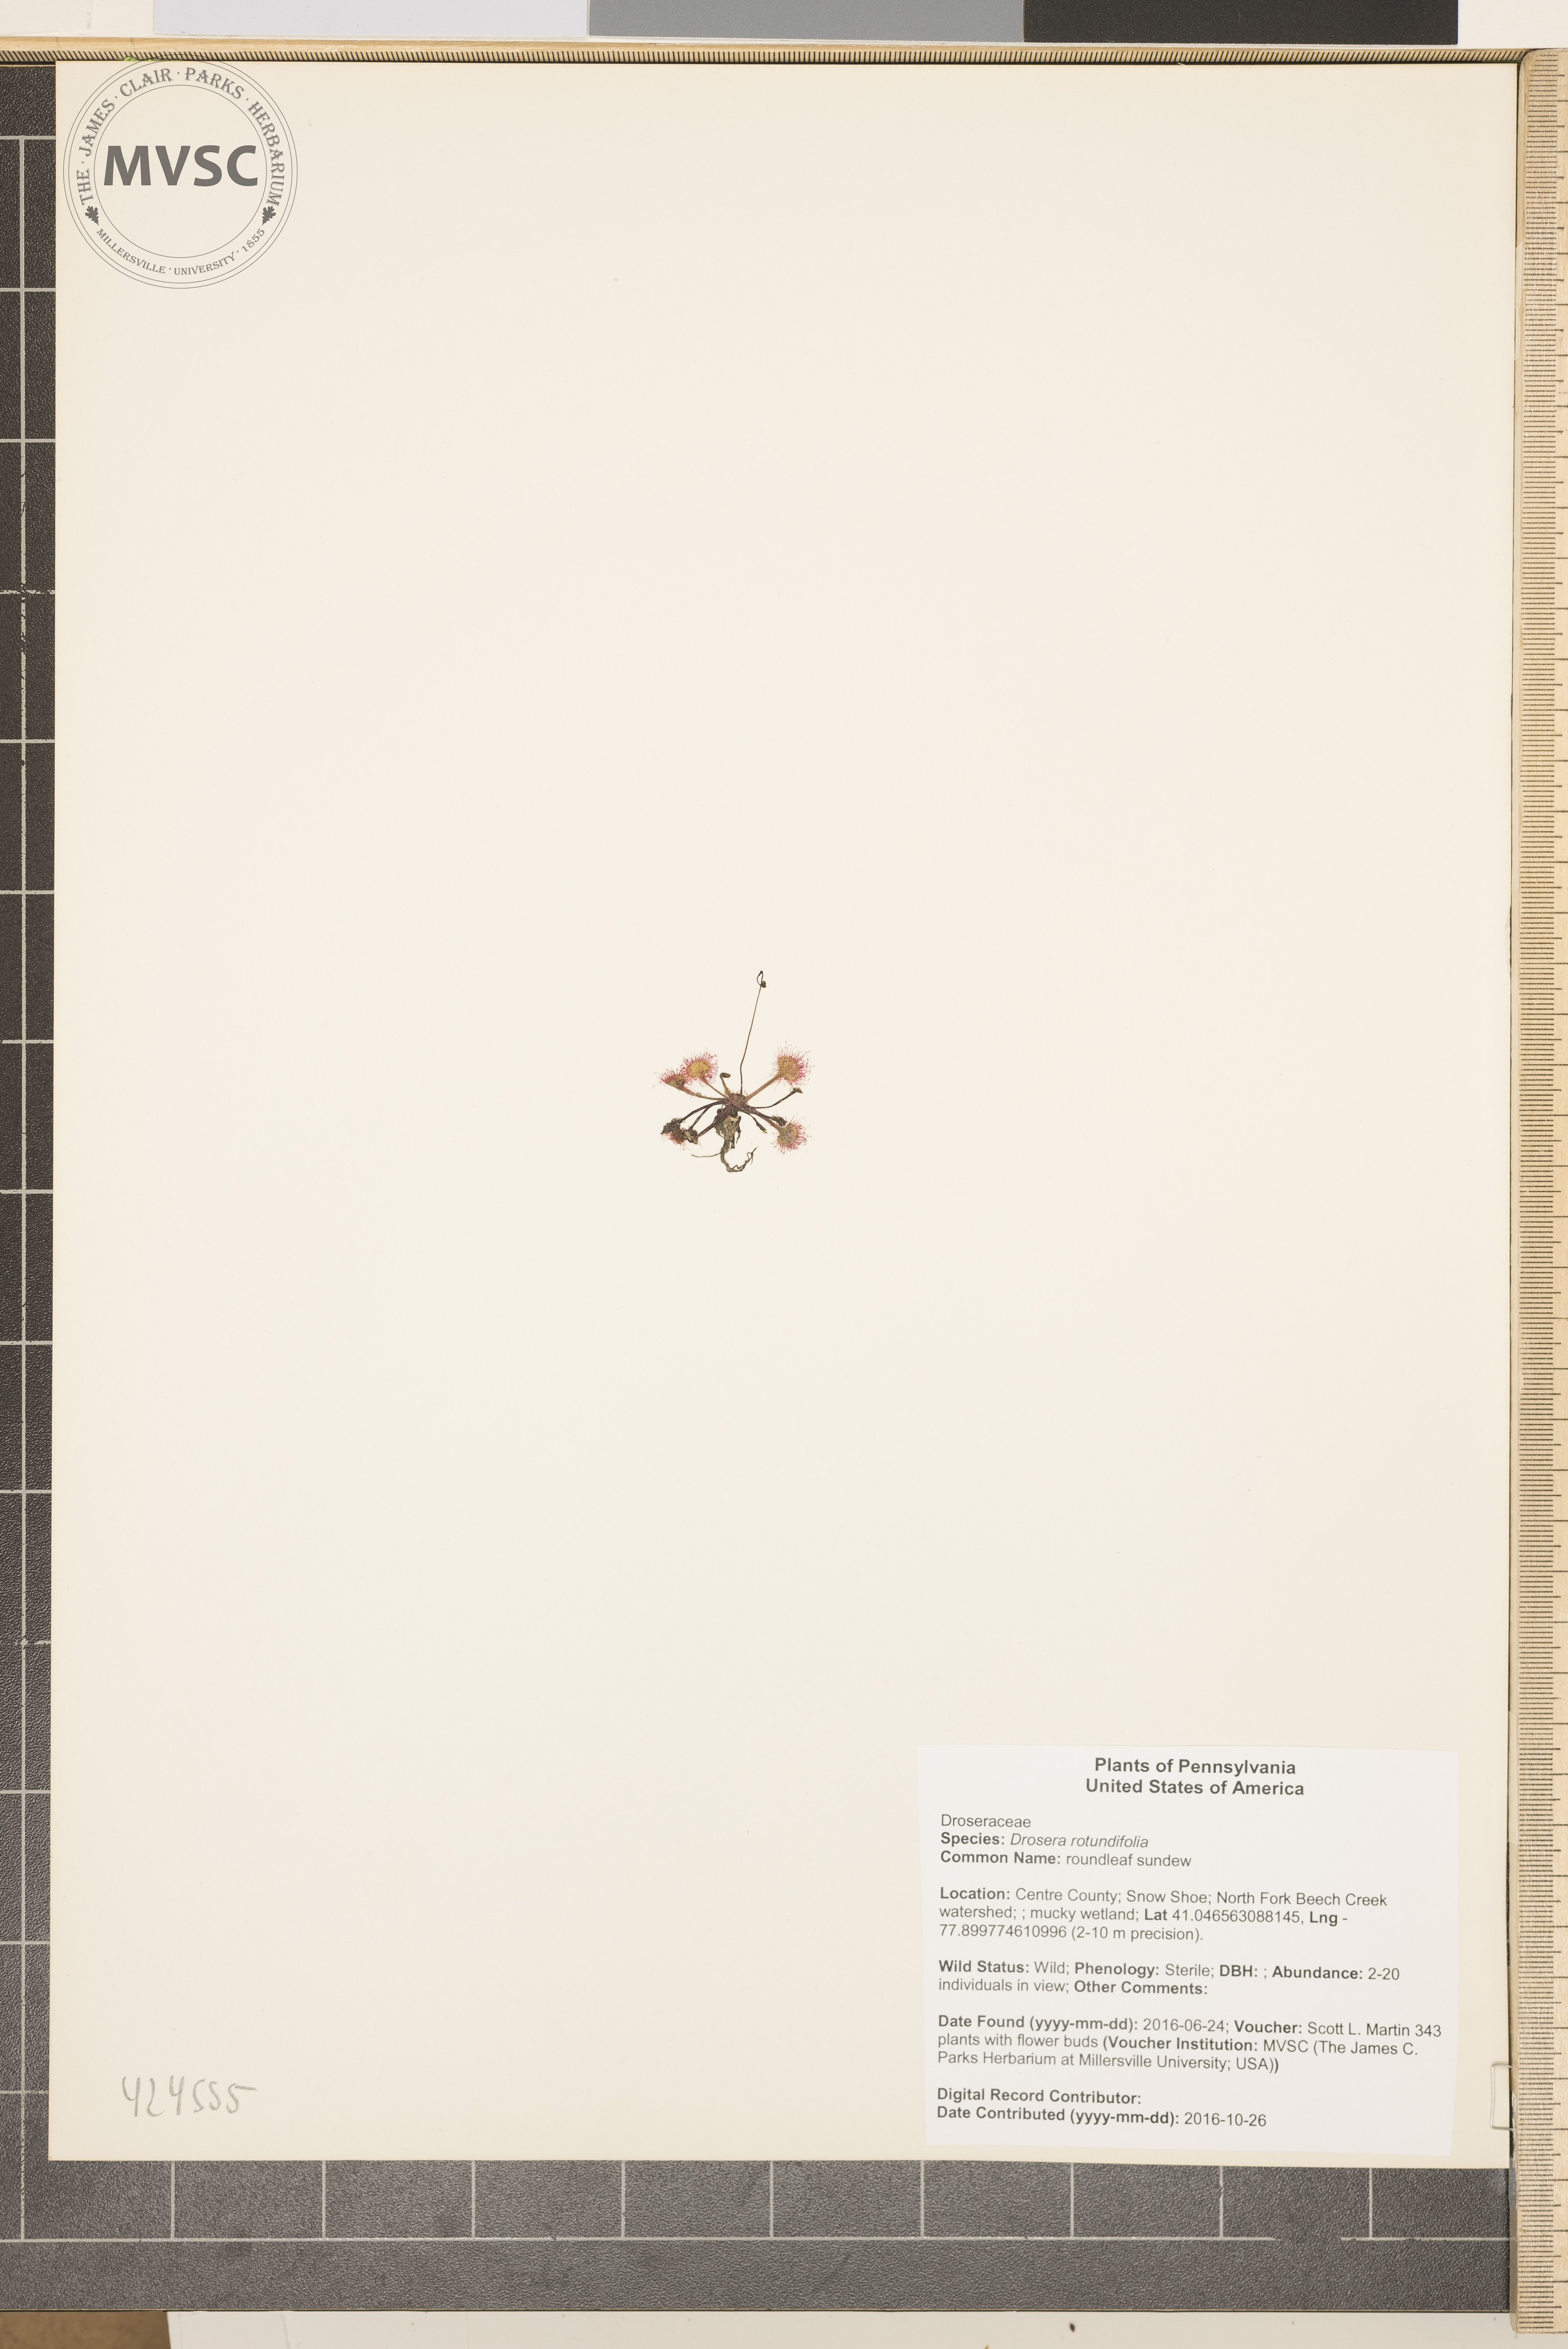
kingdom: Plantae
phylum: Tracheophyta
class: Magnoliopsida
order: Caryophyllales
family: Droseraceae
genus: Drosera
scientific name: Drosera rotundifolia
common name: roundleaf sundew
